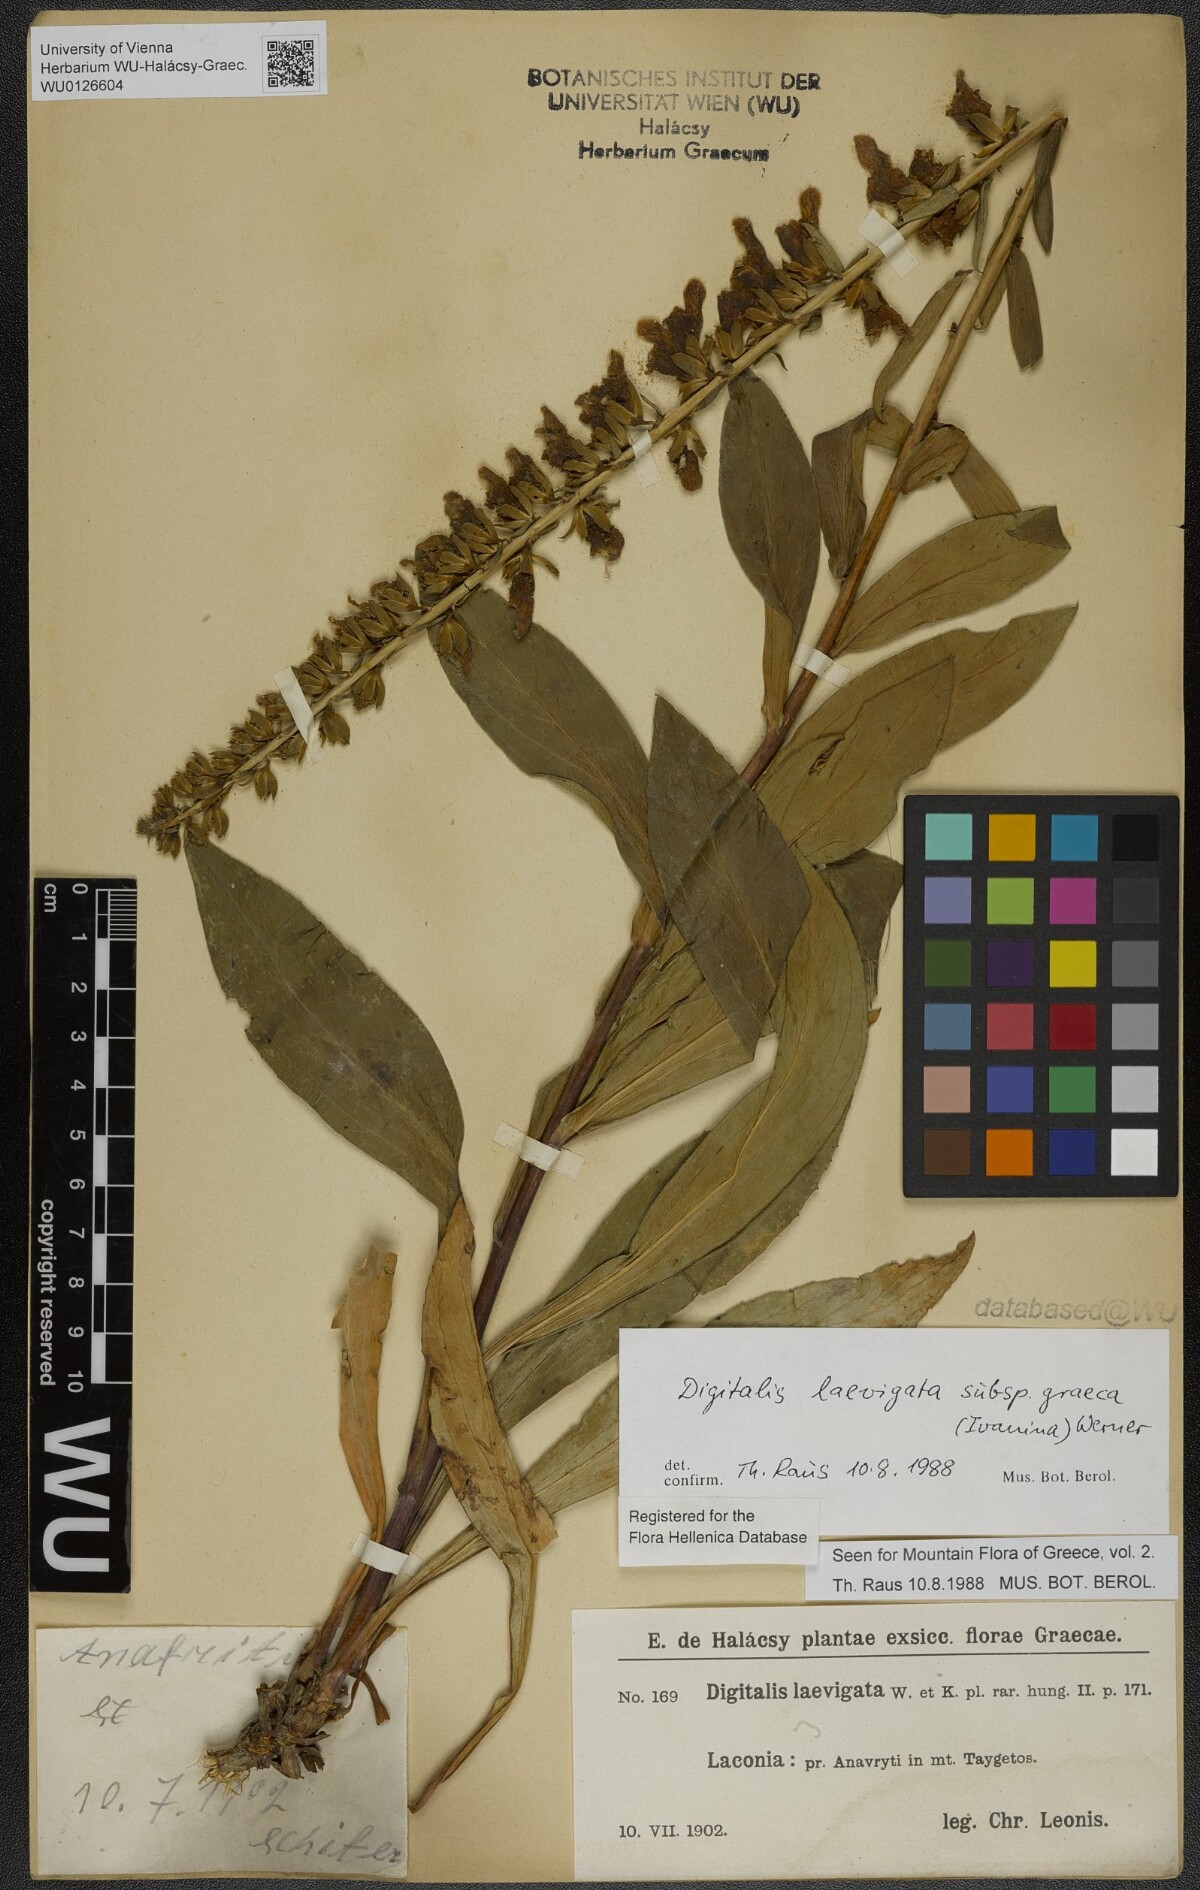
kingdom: Plantae
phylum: Tracheophyta
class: Magnoliopsida
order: Lamiales
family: Plantaginaceae
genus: Digitalis
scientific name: Digitalis laevigata
